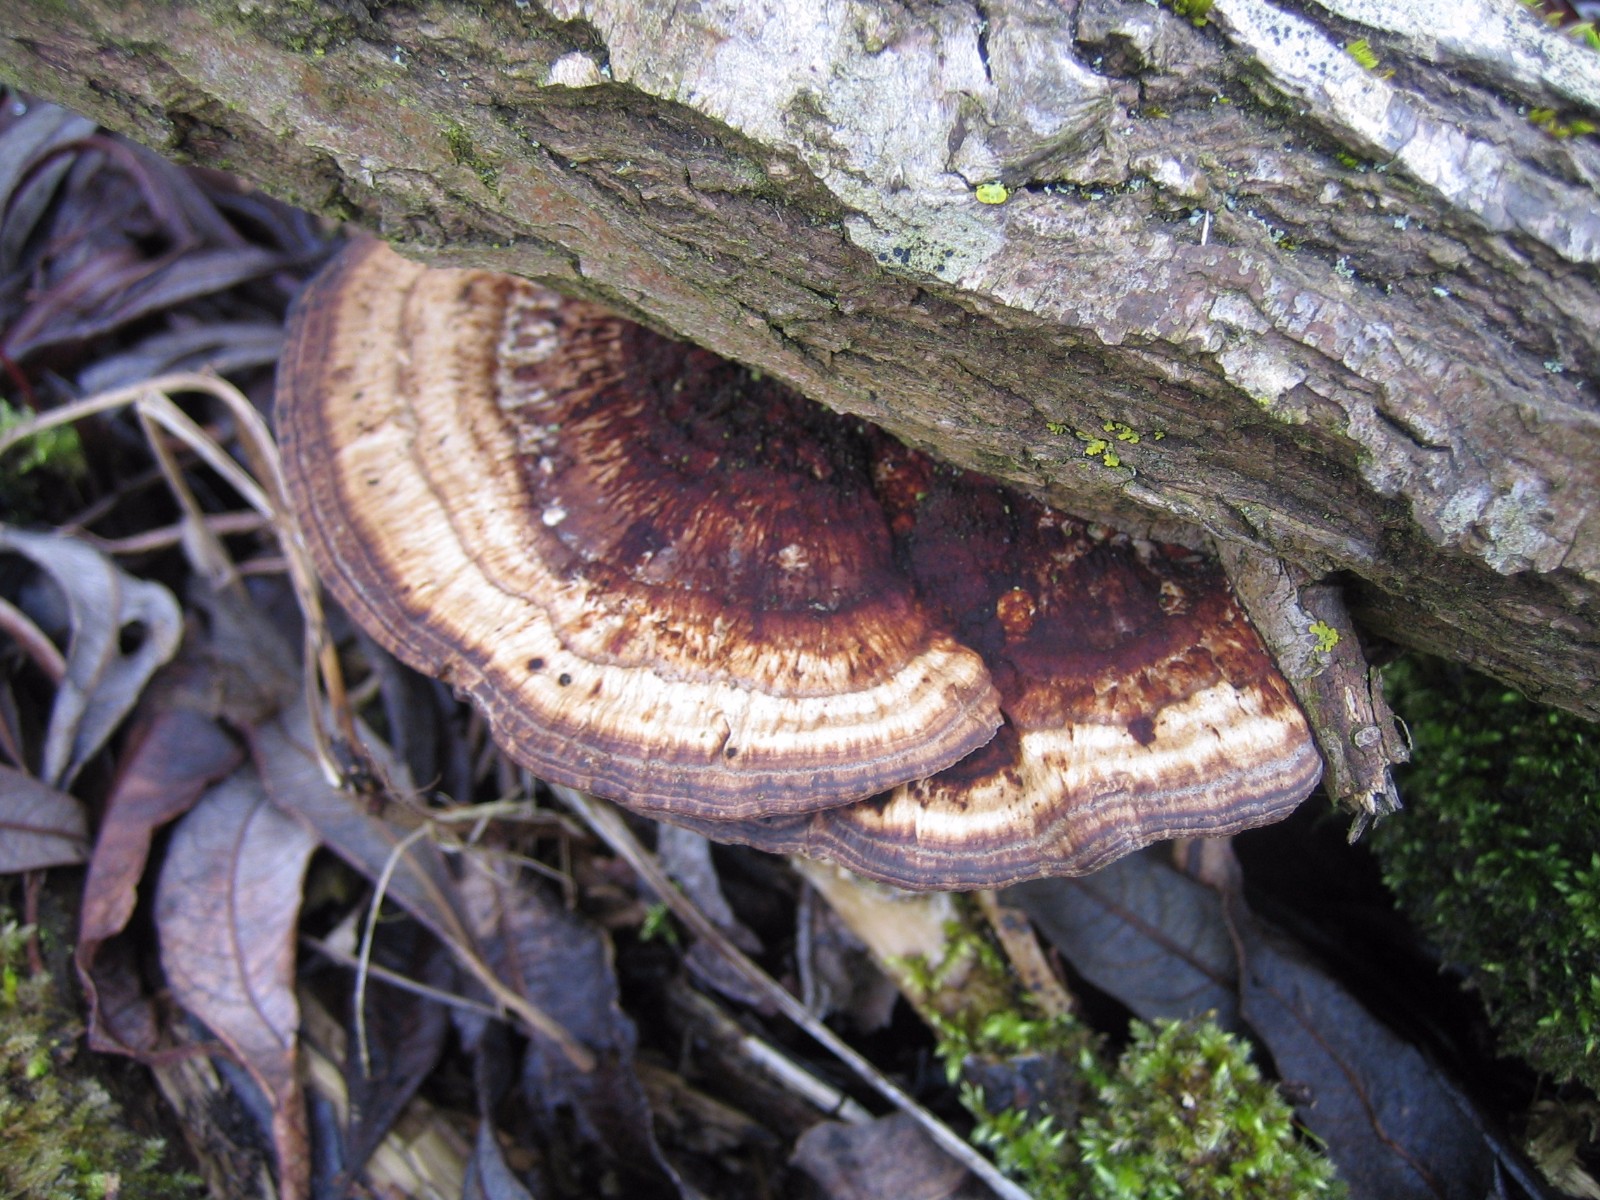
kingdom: Fungi
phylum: Basidiomycota
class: Agaricomycetes
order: Polyporales
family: Polyporaceae
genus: Daedaleopsis
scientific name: Daedaleopsis confragosa
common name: rødmende læderporesvamp
